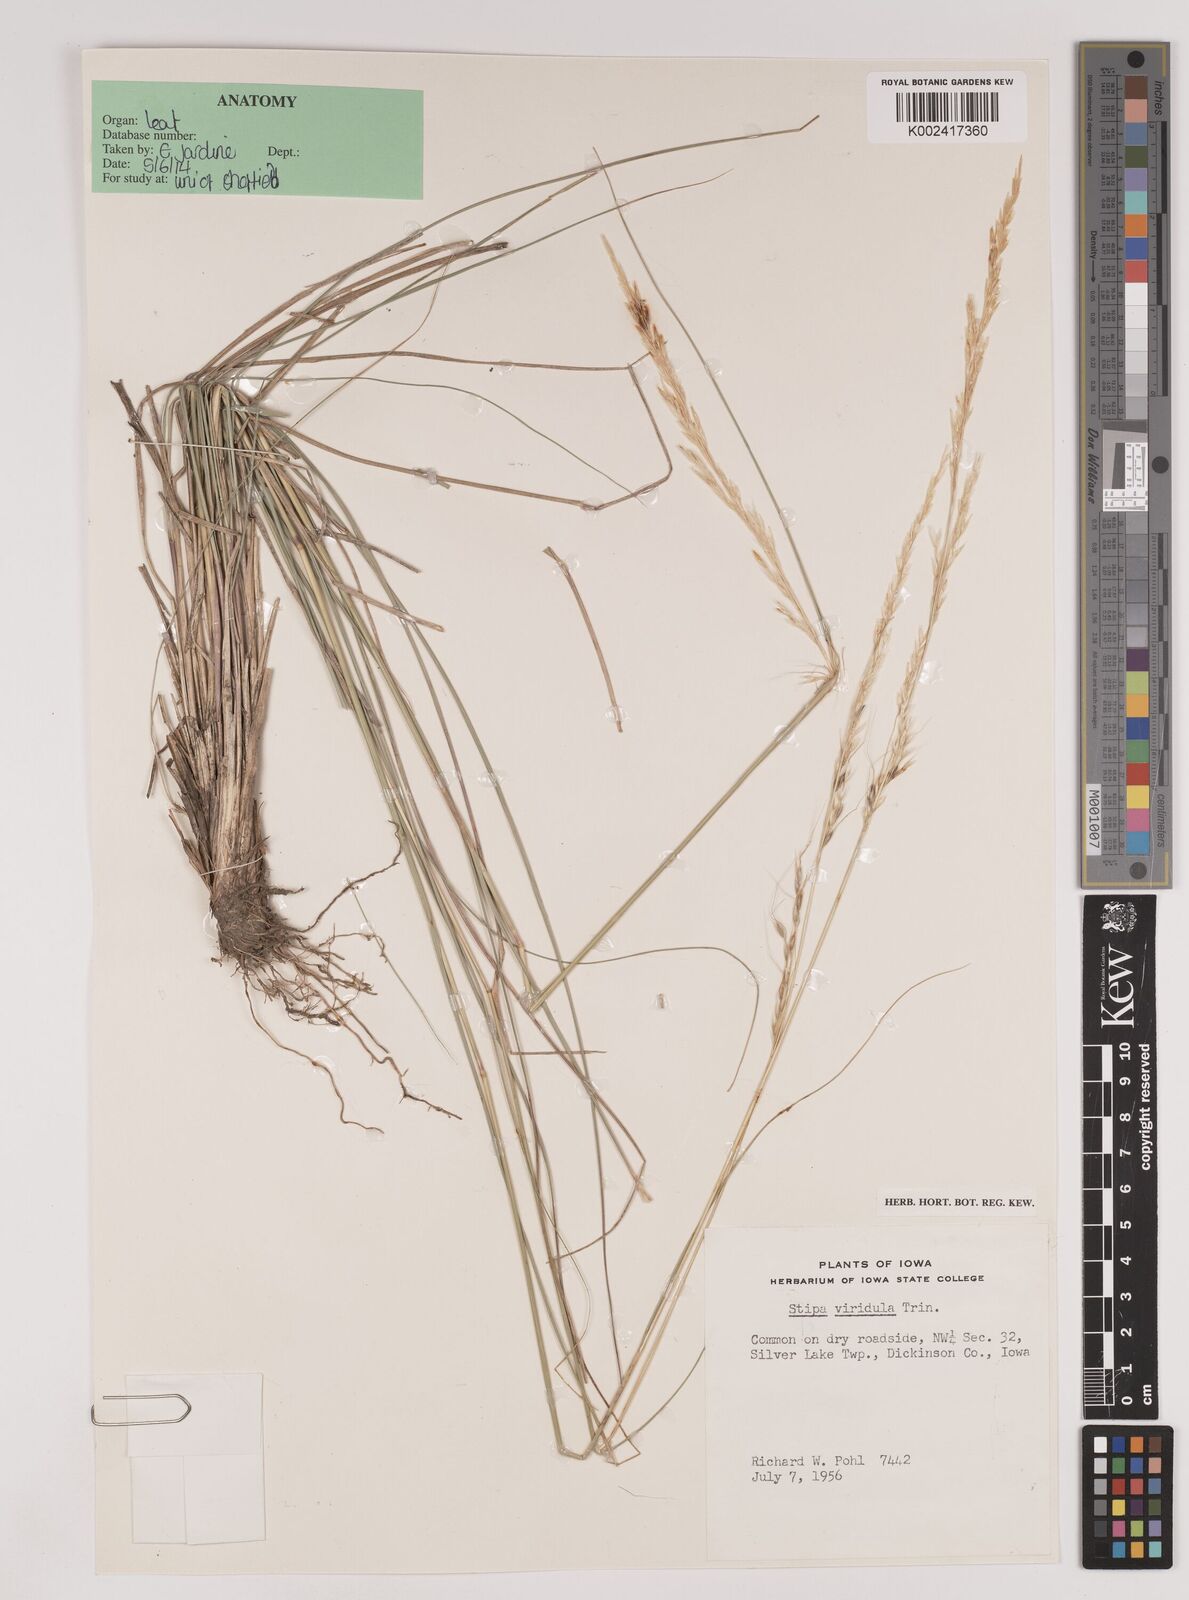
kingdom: Plantae
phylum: Tracheophyta
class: Liliopsida
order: Poales
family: Poaceae
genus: Nassella
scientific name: Nassella viridula
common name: Green needlegrass
